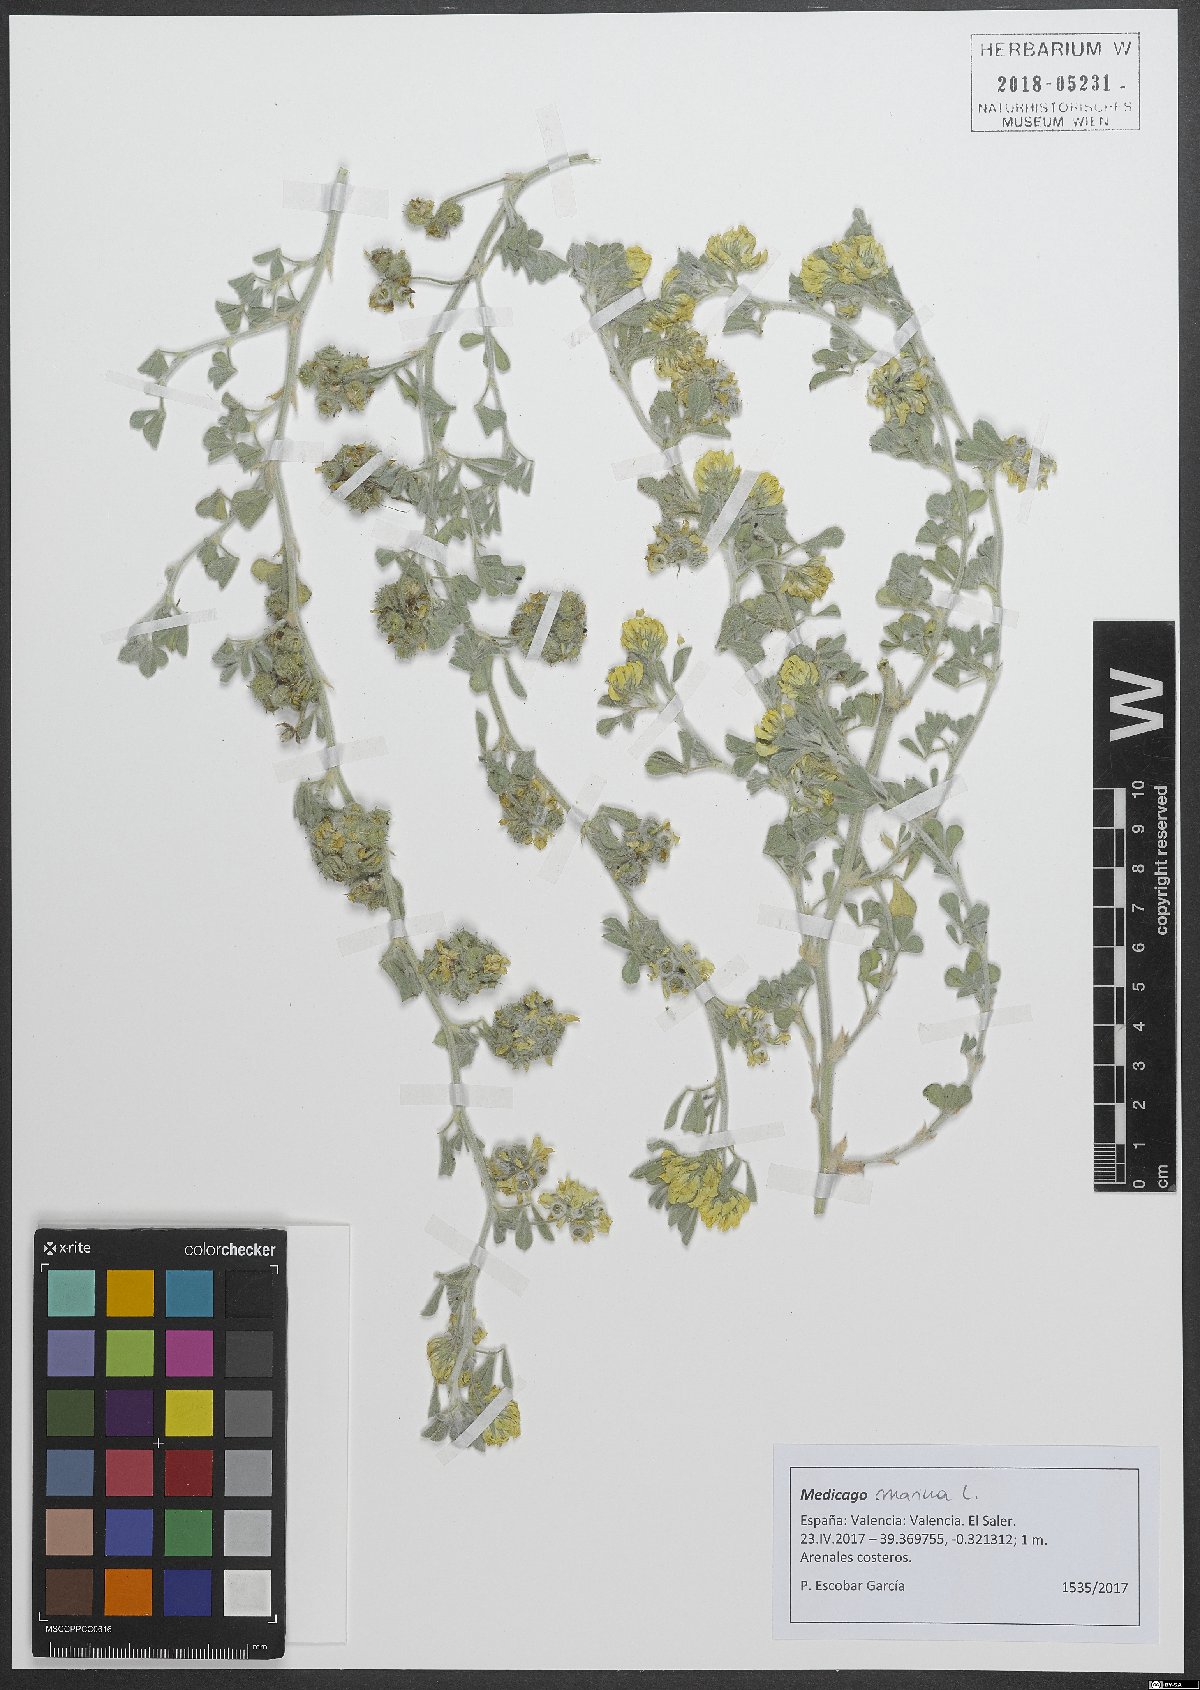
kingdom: Plantae
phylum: Tracheophyta
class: Magnoliopsida
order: Fabales
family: Fabaceae
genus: Medicago
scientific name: Medicago marina
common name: Sea medick
